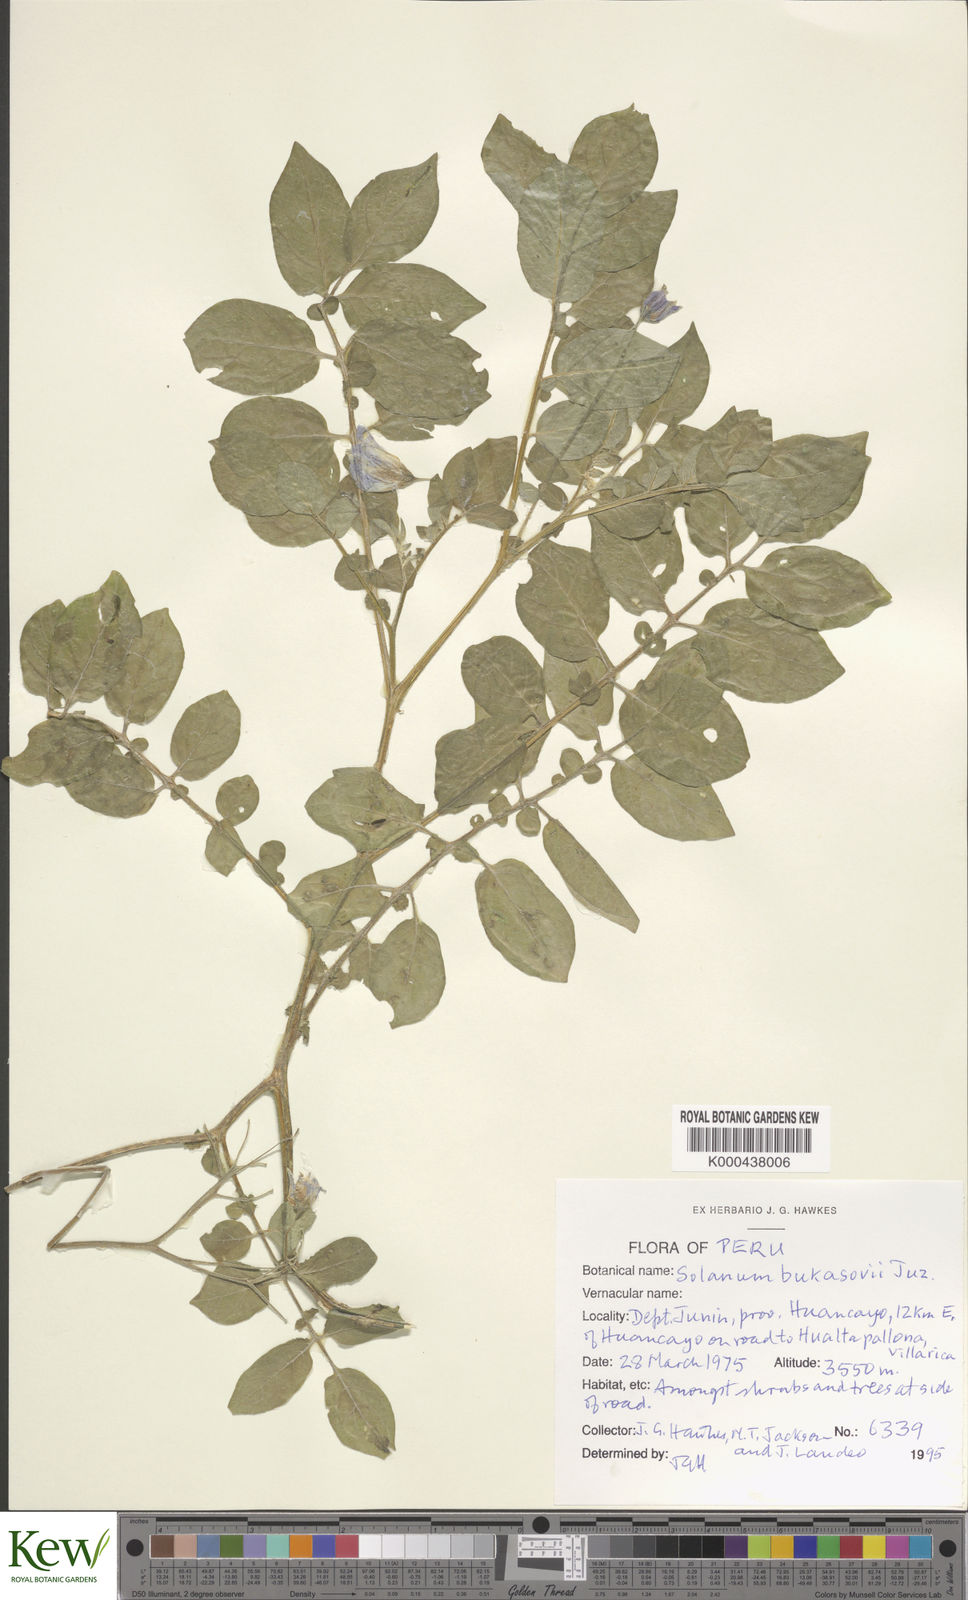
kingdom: Plantae
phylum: Tracheophyta
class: Magnoliopsida
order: Solanales
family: Solanaceae
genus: Solanum
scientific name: Solanum candolleanum
